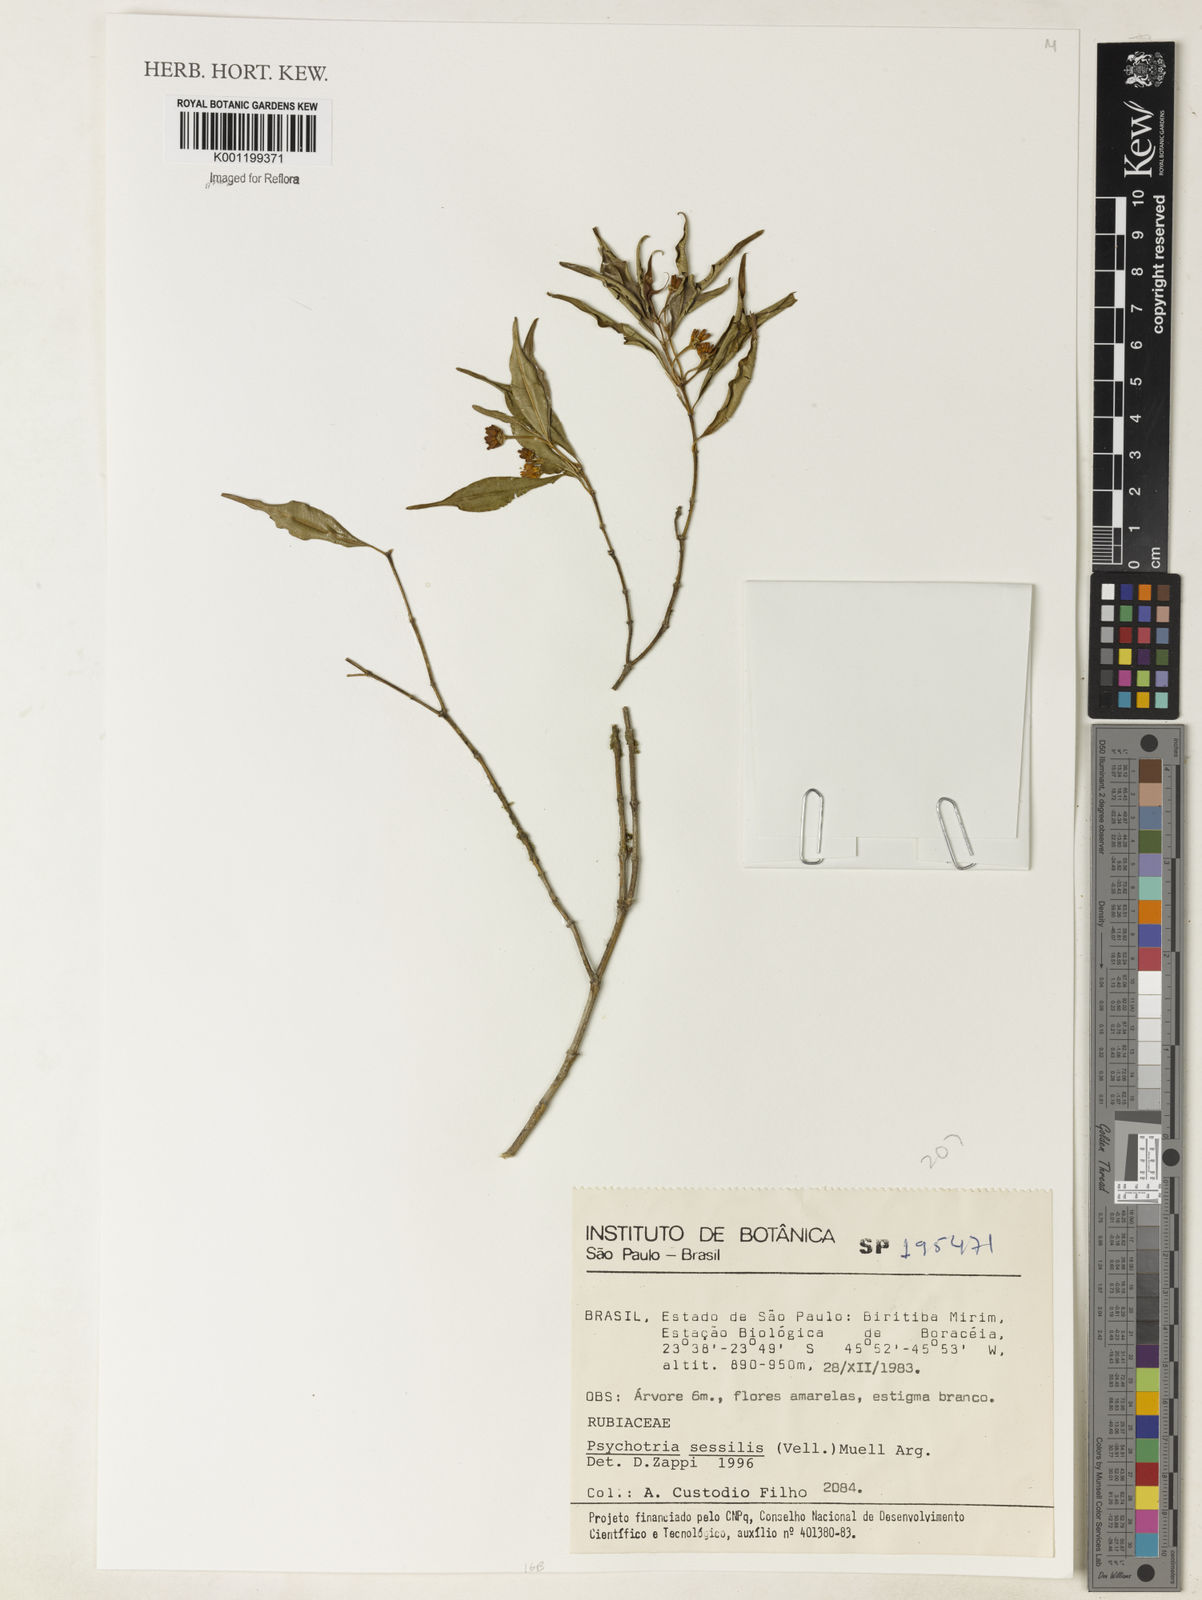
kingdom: Plantae
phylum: Tracheophyta
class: Magnoliopsida
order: Gentianales
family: Rubiaceae
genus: Palicourea
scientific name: Palicourea sessilis
